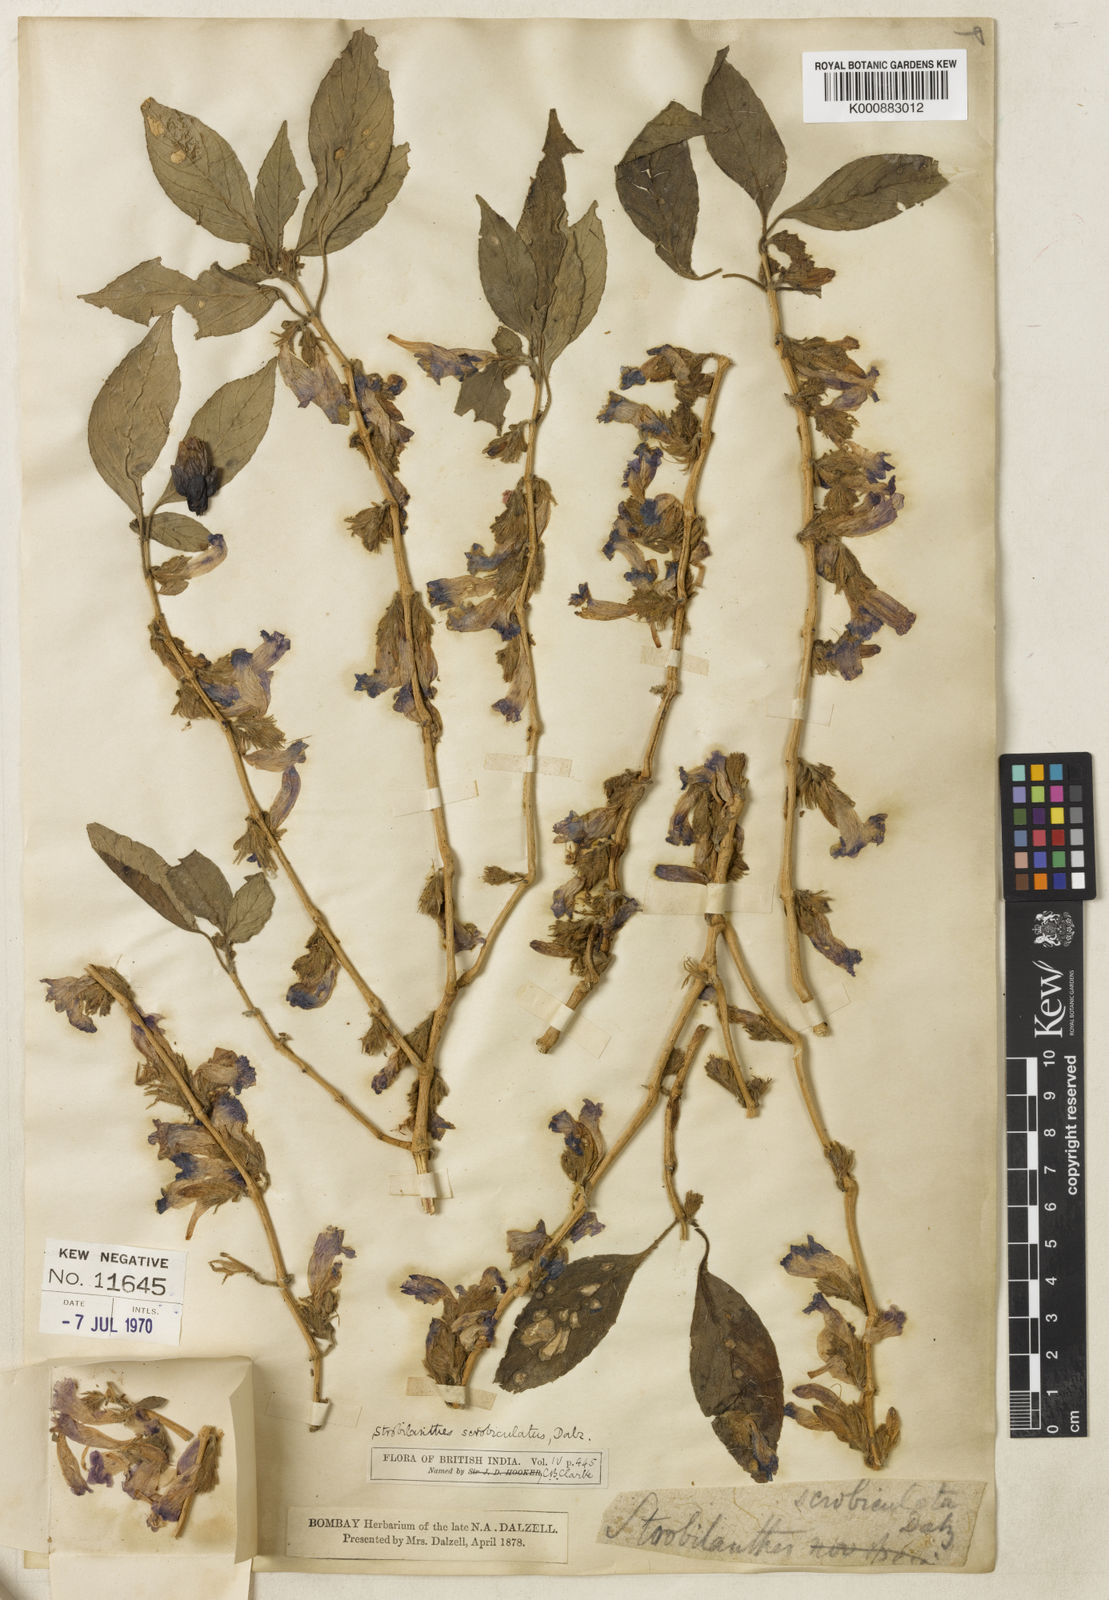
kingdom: Plantae
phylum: Tracheophyta
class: Magnoliopsida
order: Lamiales
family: Acanthaceae
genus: Strobilanthes
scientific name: Strobilanthes scrobiculata
